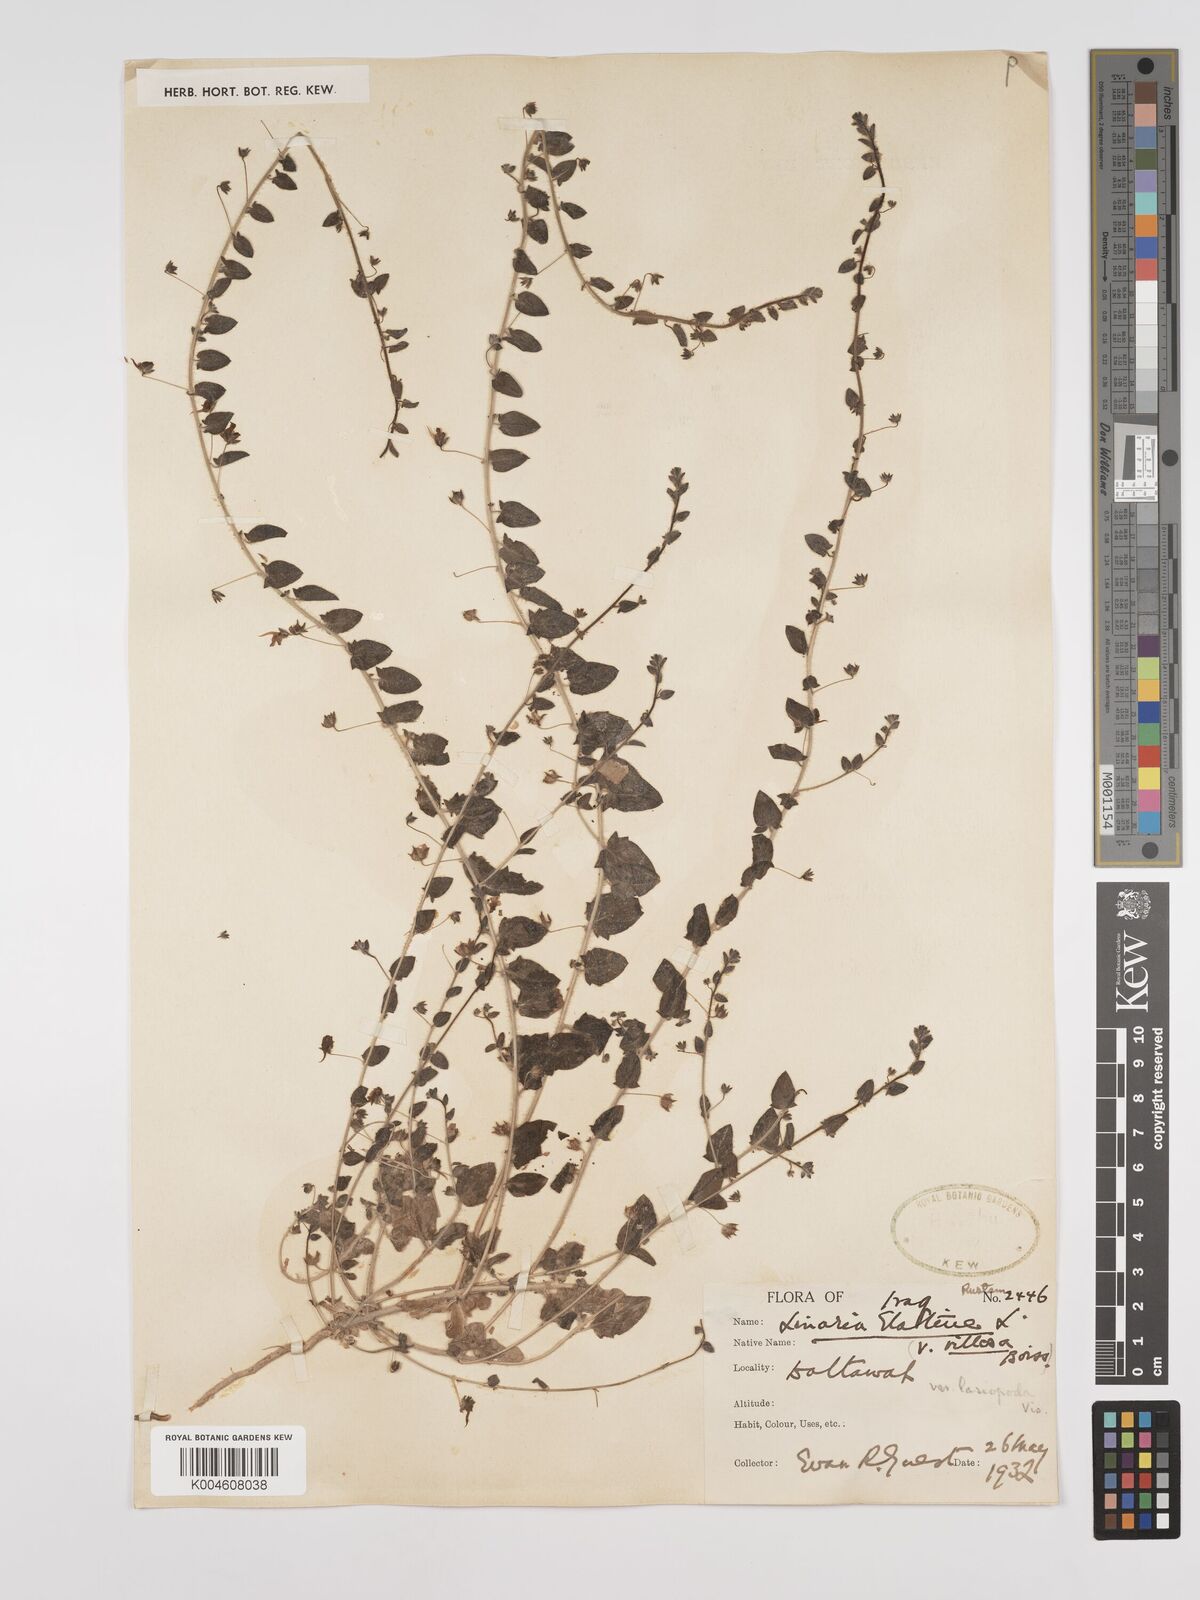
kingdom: Plantae
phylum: Tracheophyta
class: Magnoliopsida
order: Lamiales
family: Plantaginaceae
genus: Kickxia
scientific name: Kickxia elatine
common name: Sharp-leaved fluellen
